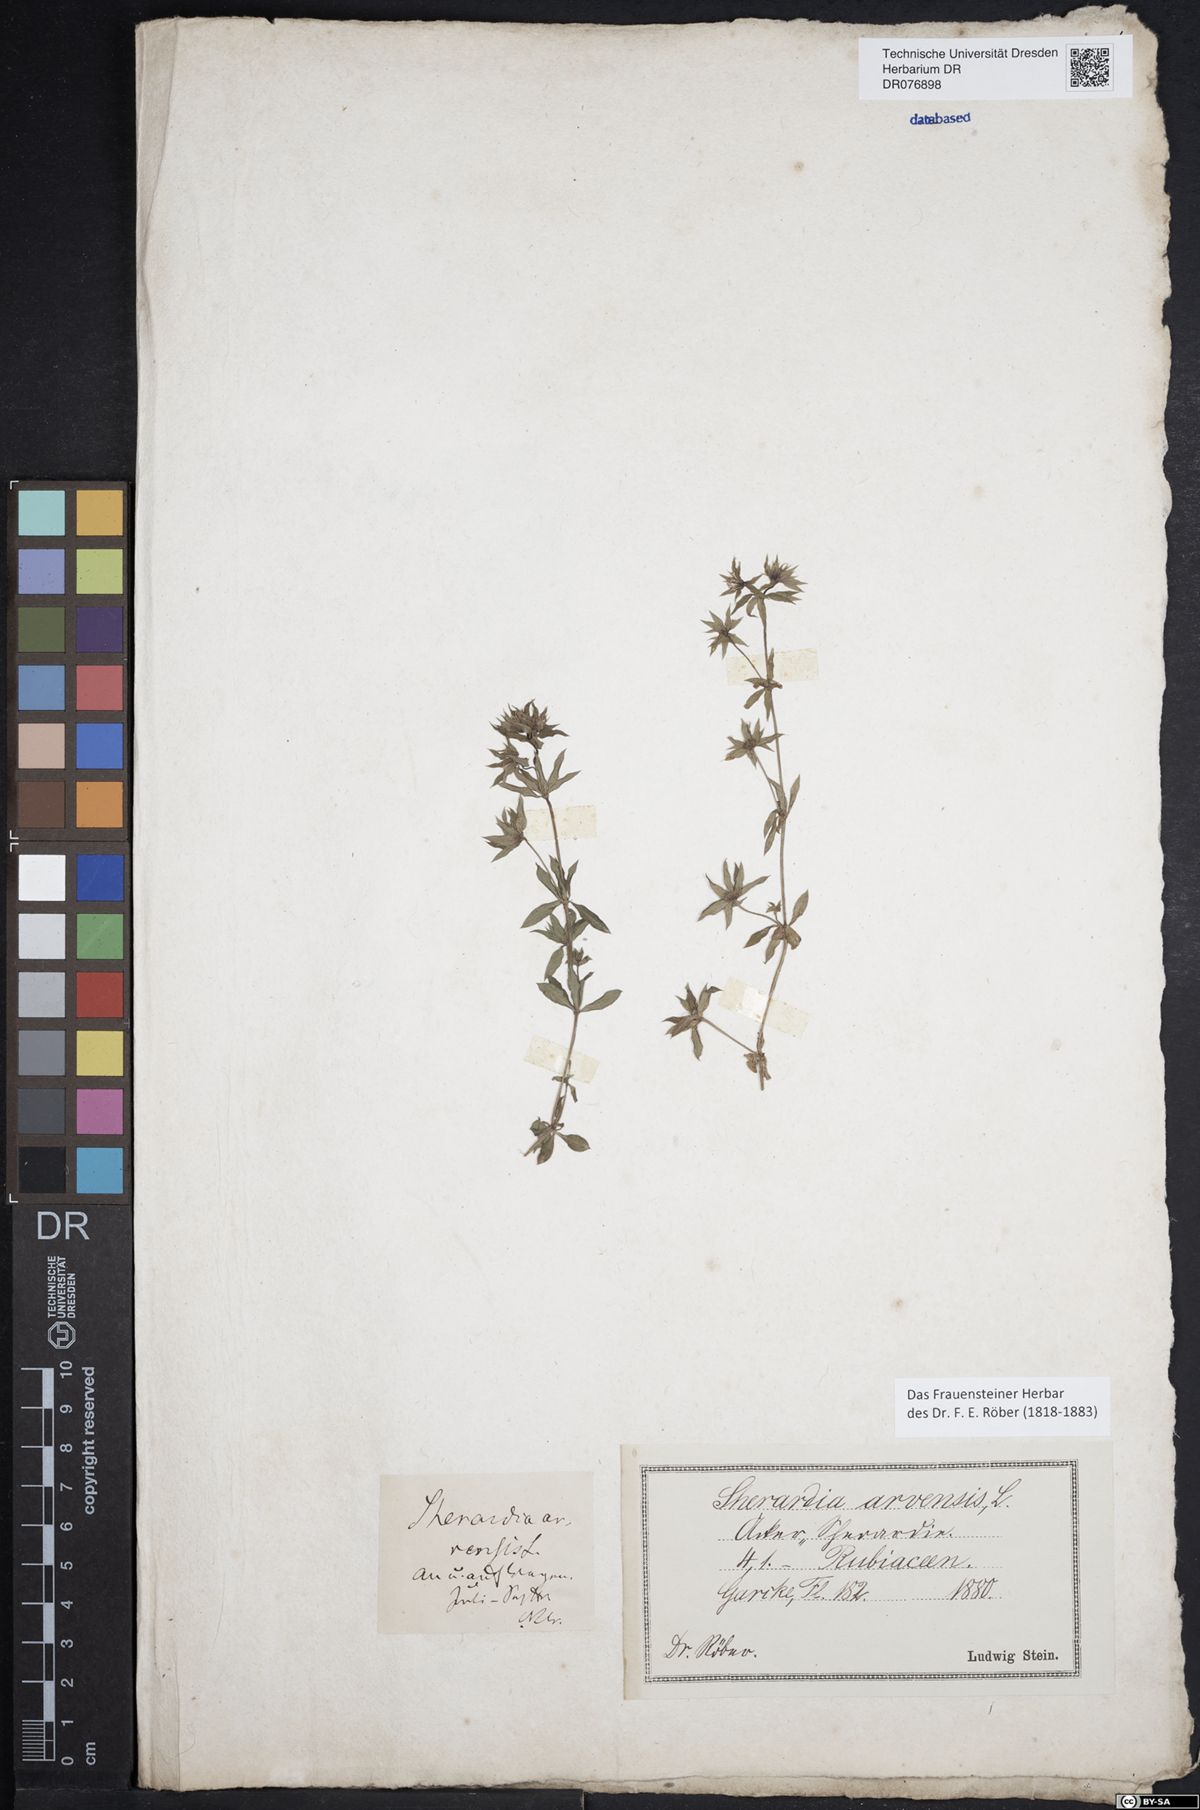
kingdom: Plantae
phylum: Tracheophyta
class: Magnoliopsida
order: Gentianales
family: Rubiaceae
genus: Sherardia
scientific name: Sherardia arvensis
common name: Field madder
